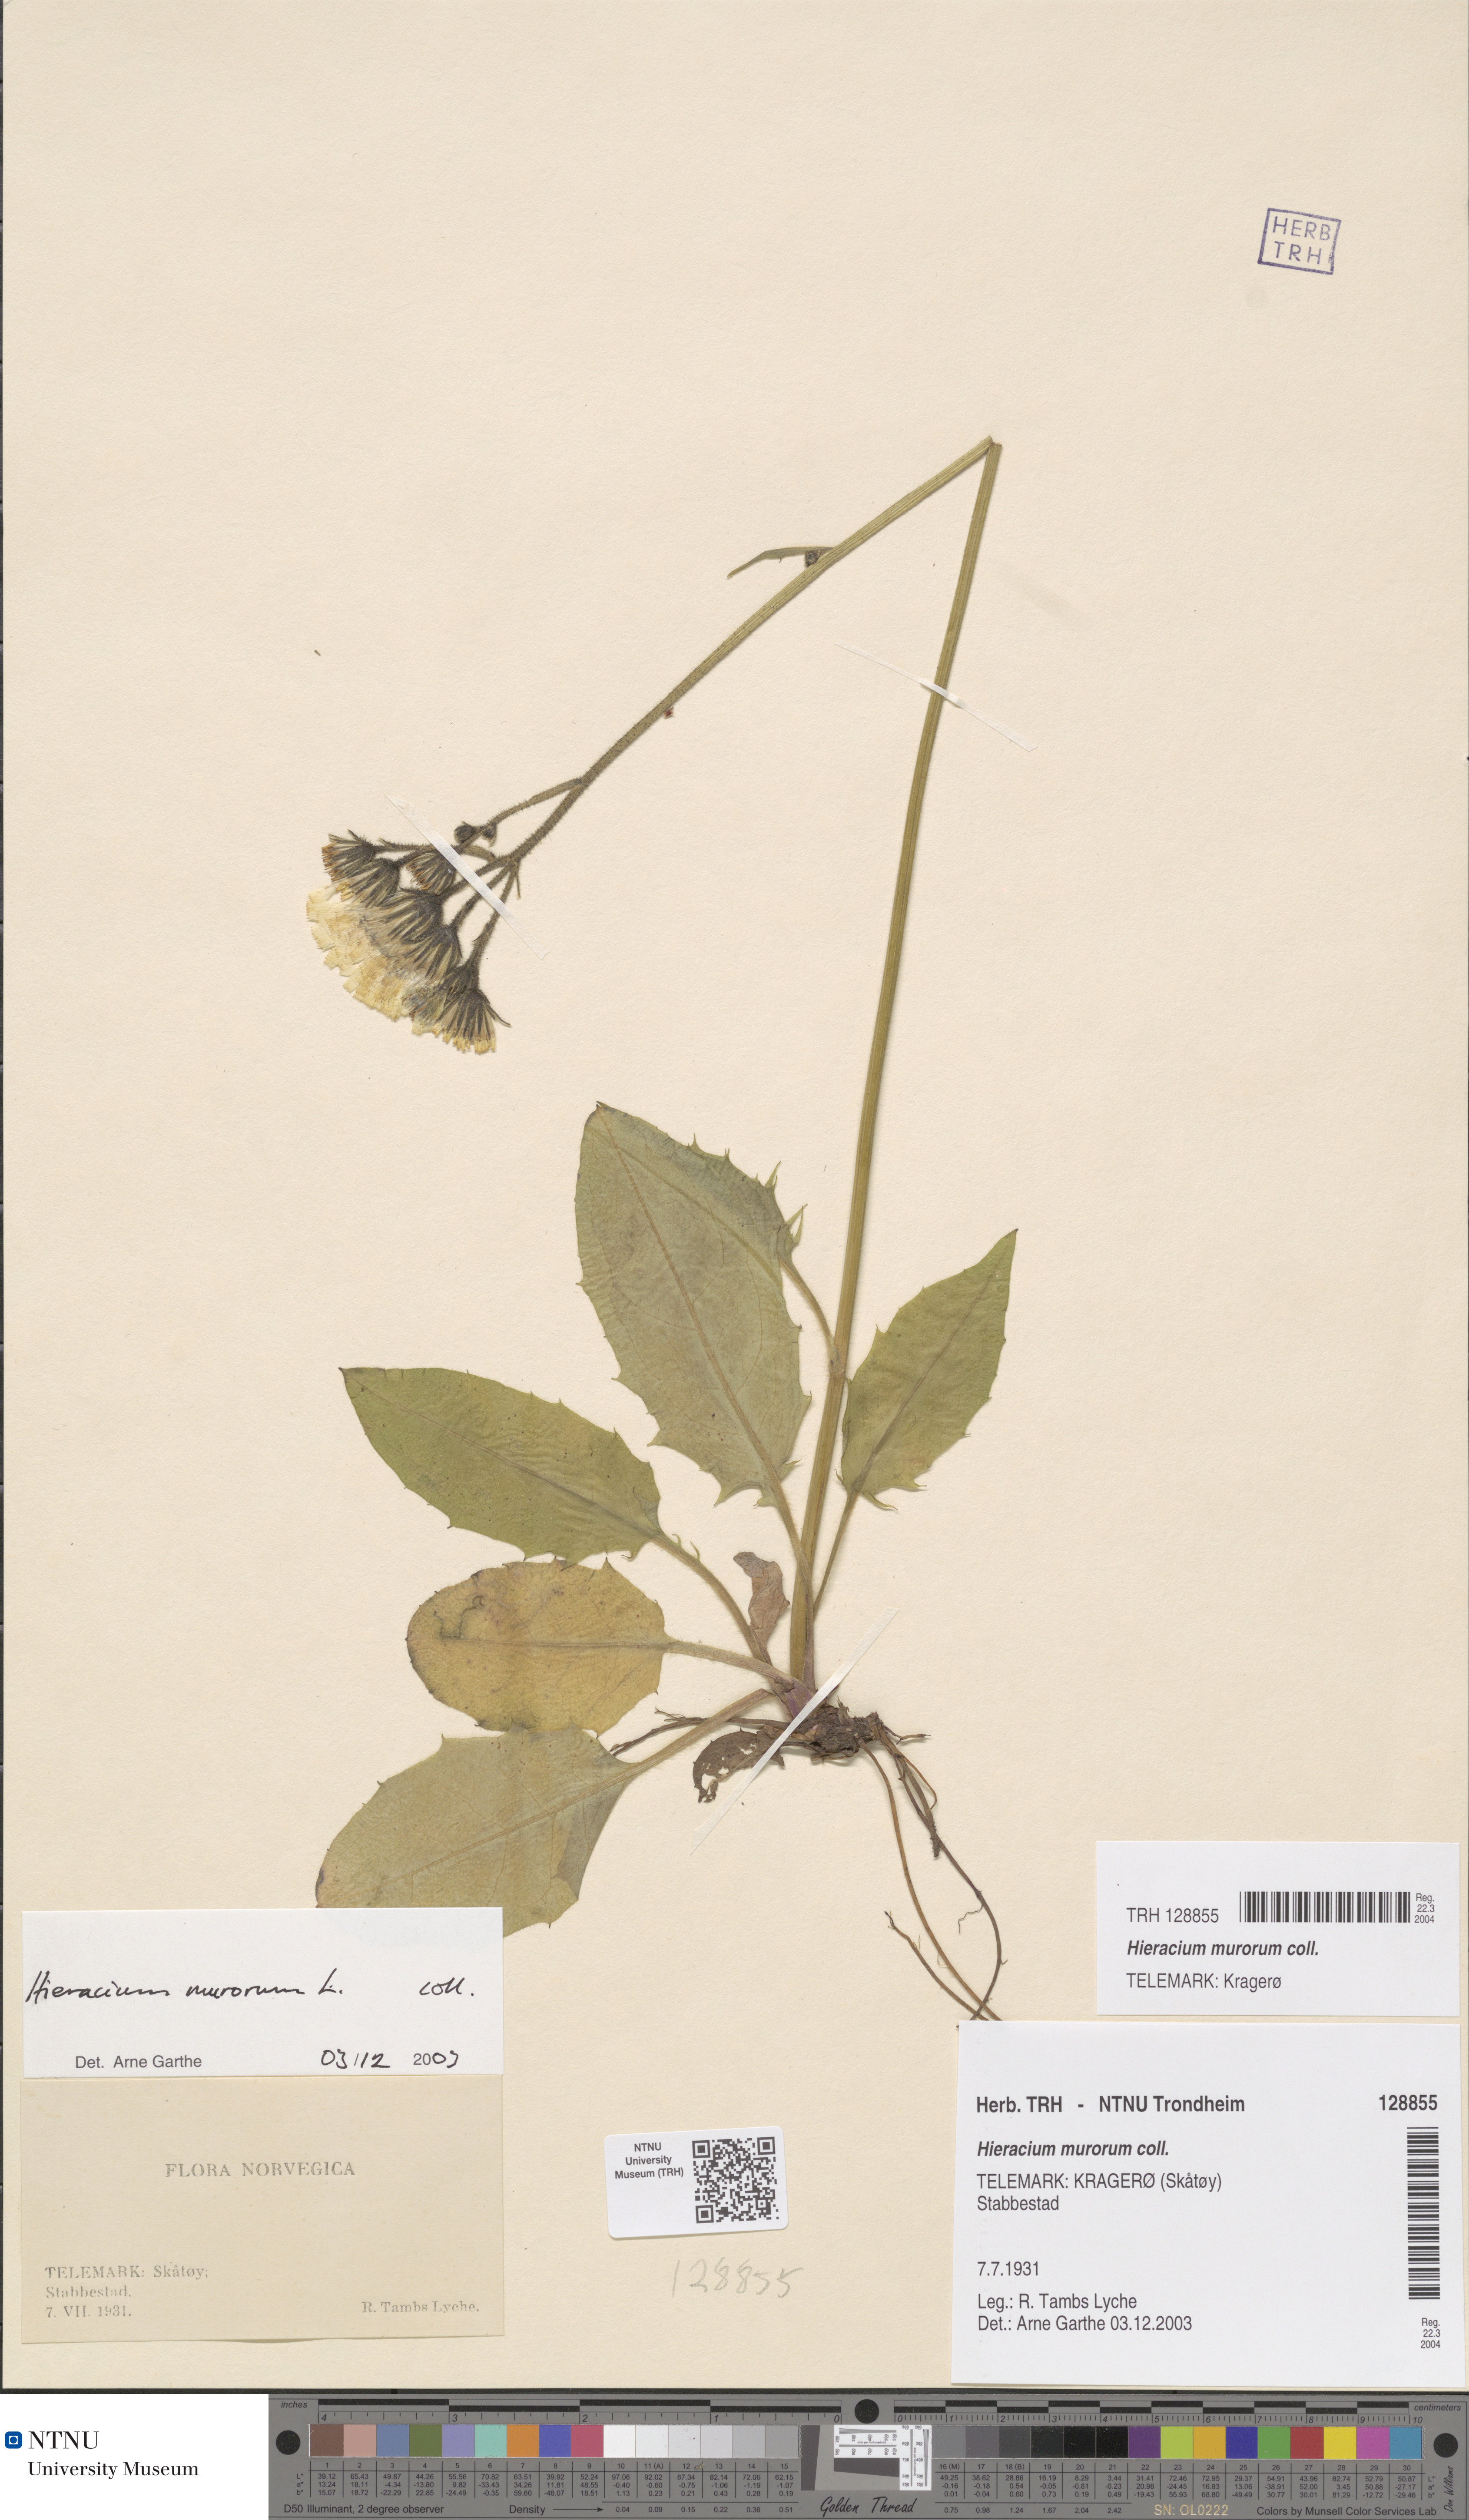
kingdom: Plantae
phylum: Tracheophyta
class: Magnoliopsida
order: Asterales
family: Asteraceae
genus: Hieracium
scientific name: Hieracium murorum
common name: Wall hawkweed
